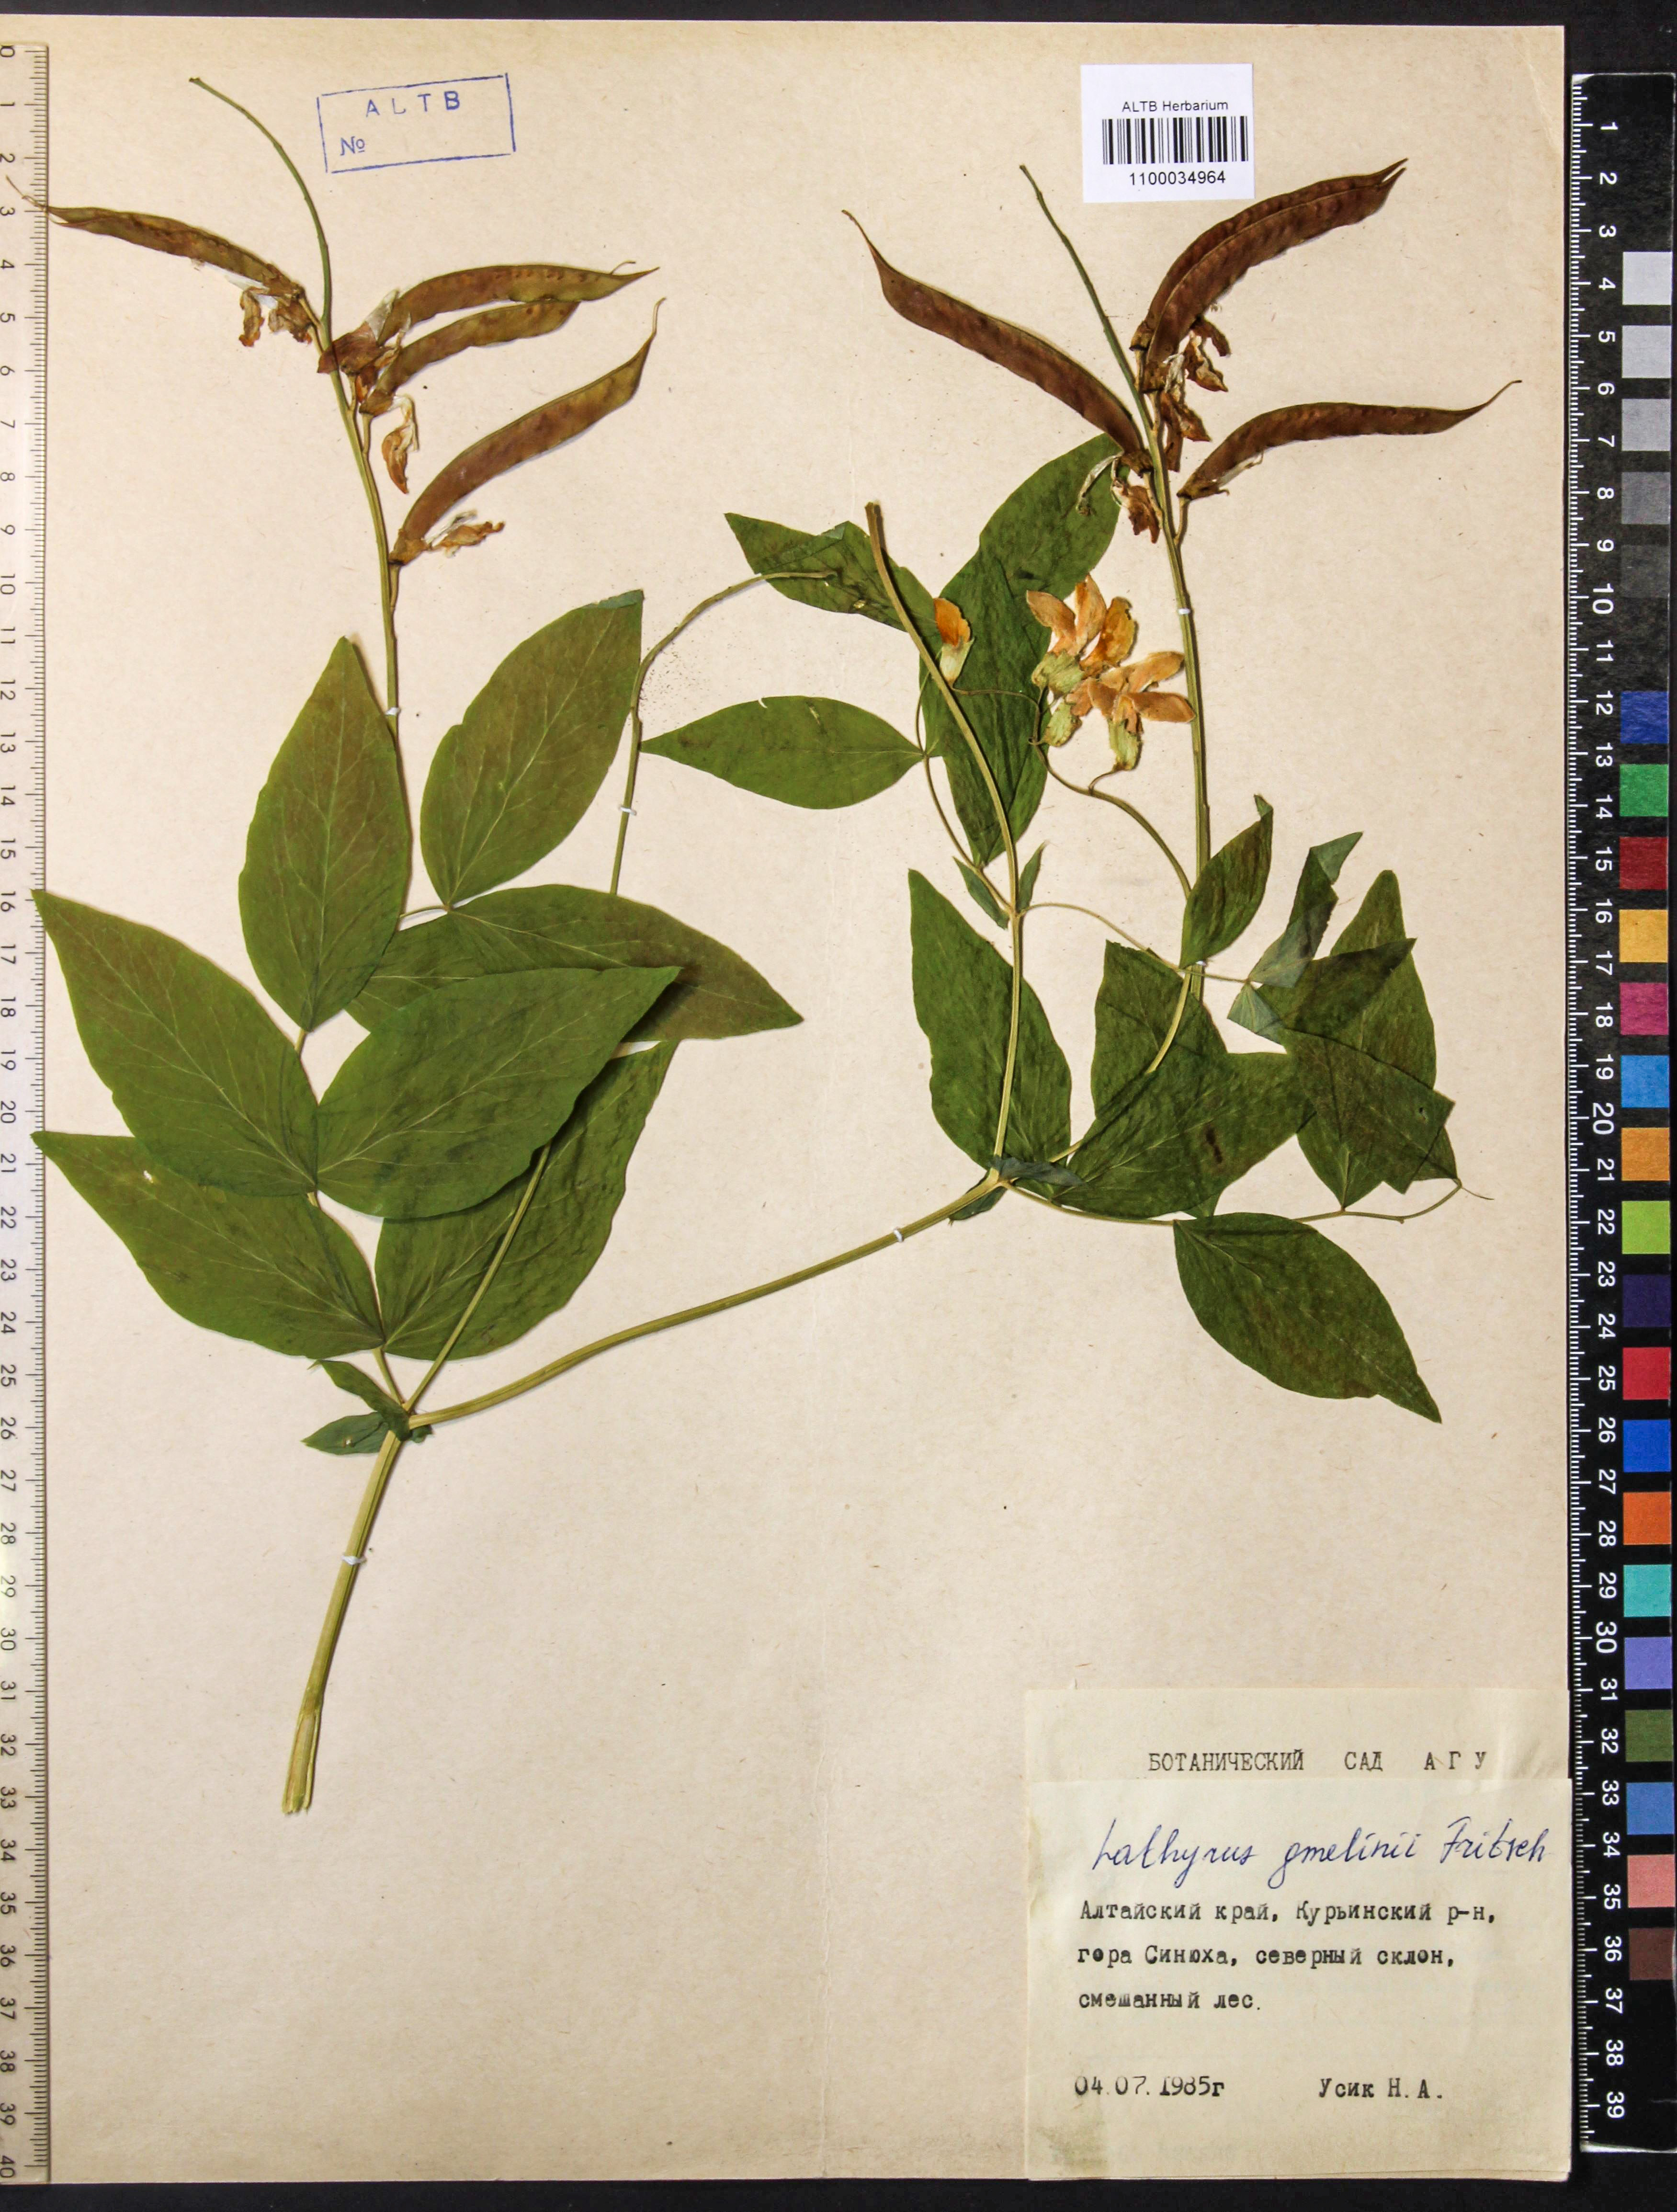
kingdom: Plantae
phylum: Tracheophyta
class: Magnoliopsida
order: Fabales
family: Fabaceae
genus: Lathyrus
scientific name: Lathyrus gmelinii
